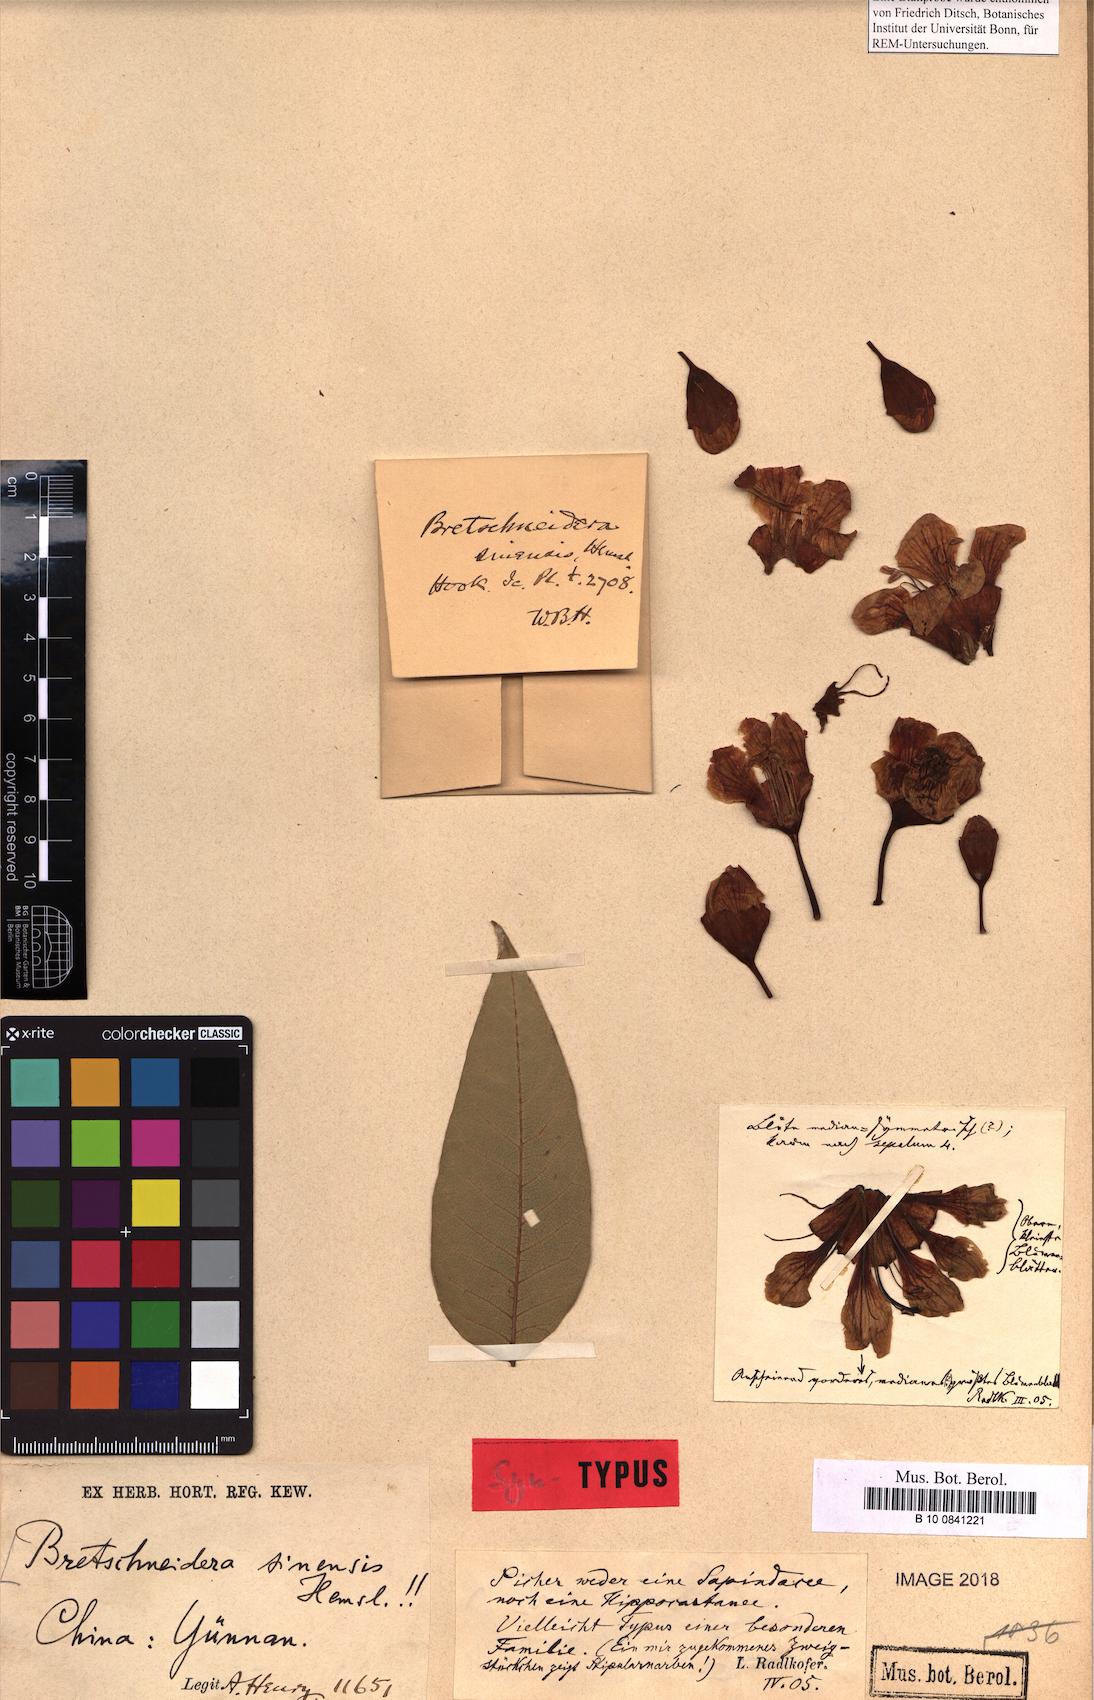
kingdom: Plantae
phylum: Tracheophyta
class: Magnoliopsida
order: Brassicales
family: Akaniaceae
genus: Bretschneidera
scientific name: Bretschneidera sinensis
